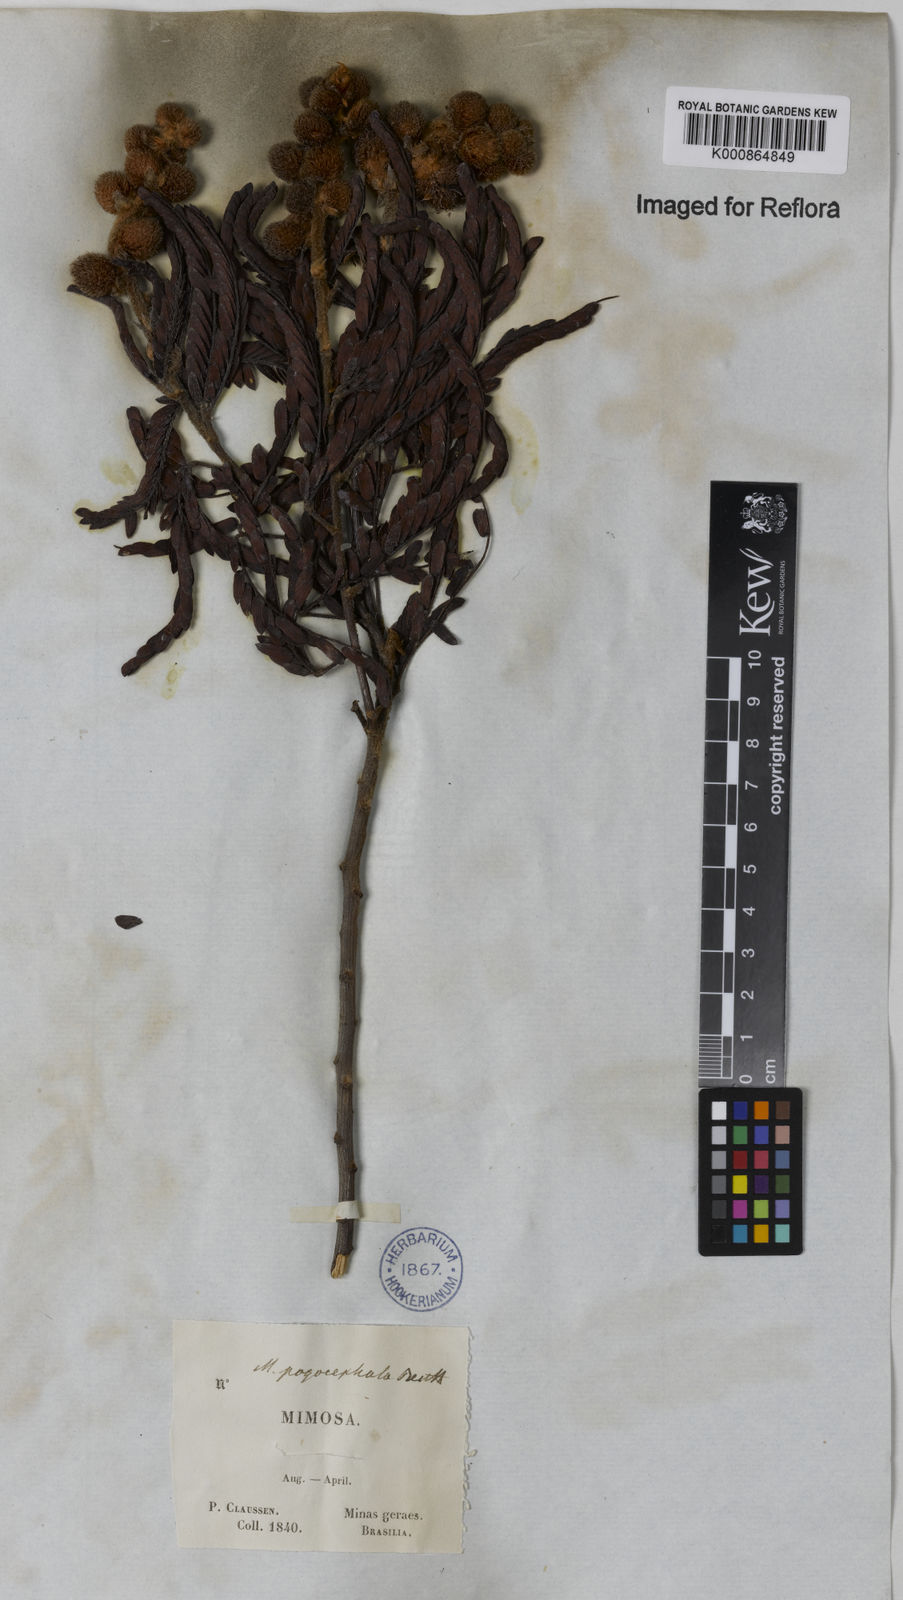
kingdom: Plantae
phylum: Tracheophyta
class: Magnoliopsida
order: Fabales
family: Fabaceae
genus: Mimosa
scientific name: Mimosa pogocephala
